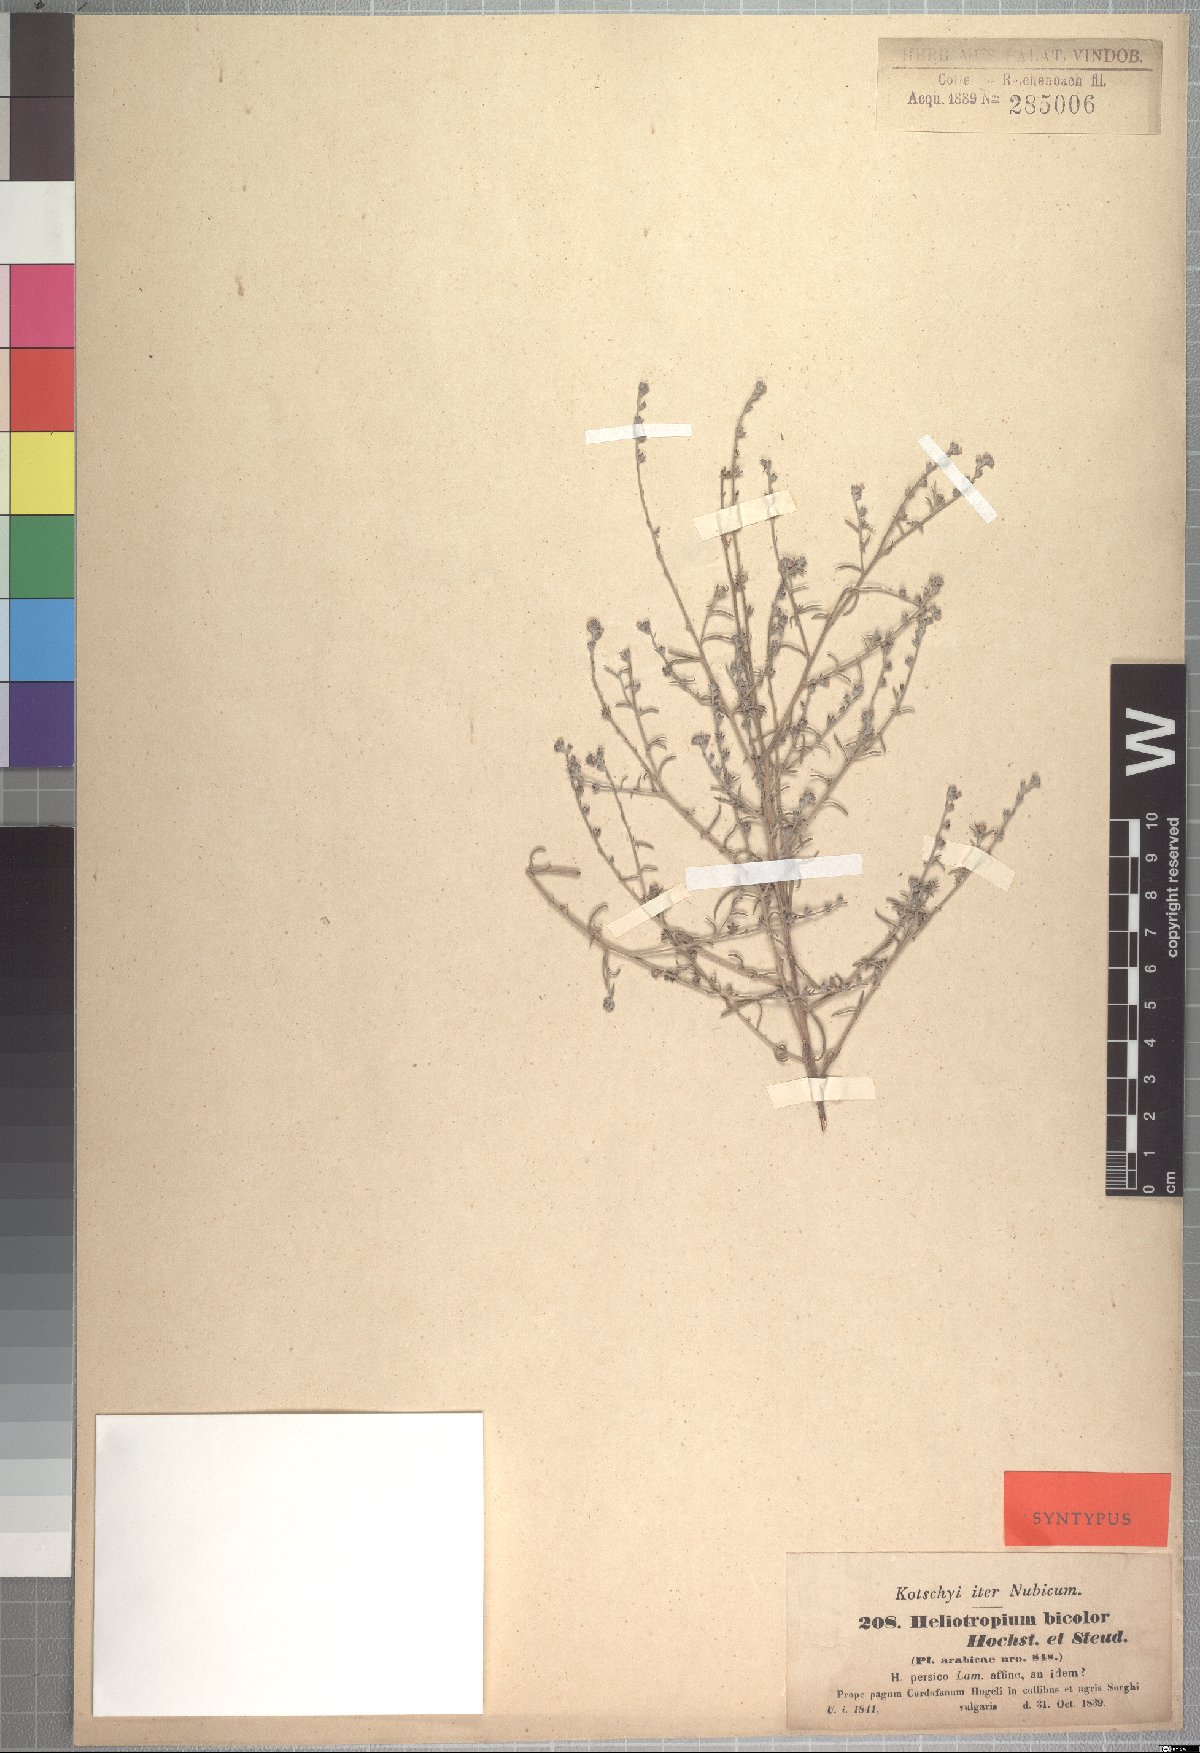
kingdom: Plantae
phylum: Tracheophyta
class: Magnoliopsida
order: Boraginales
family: Heliotropiaceae
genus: Euploca
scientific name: Euploca strigosa
